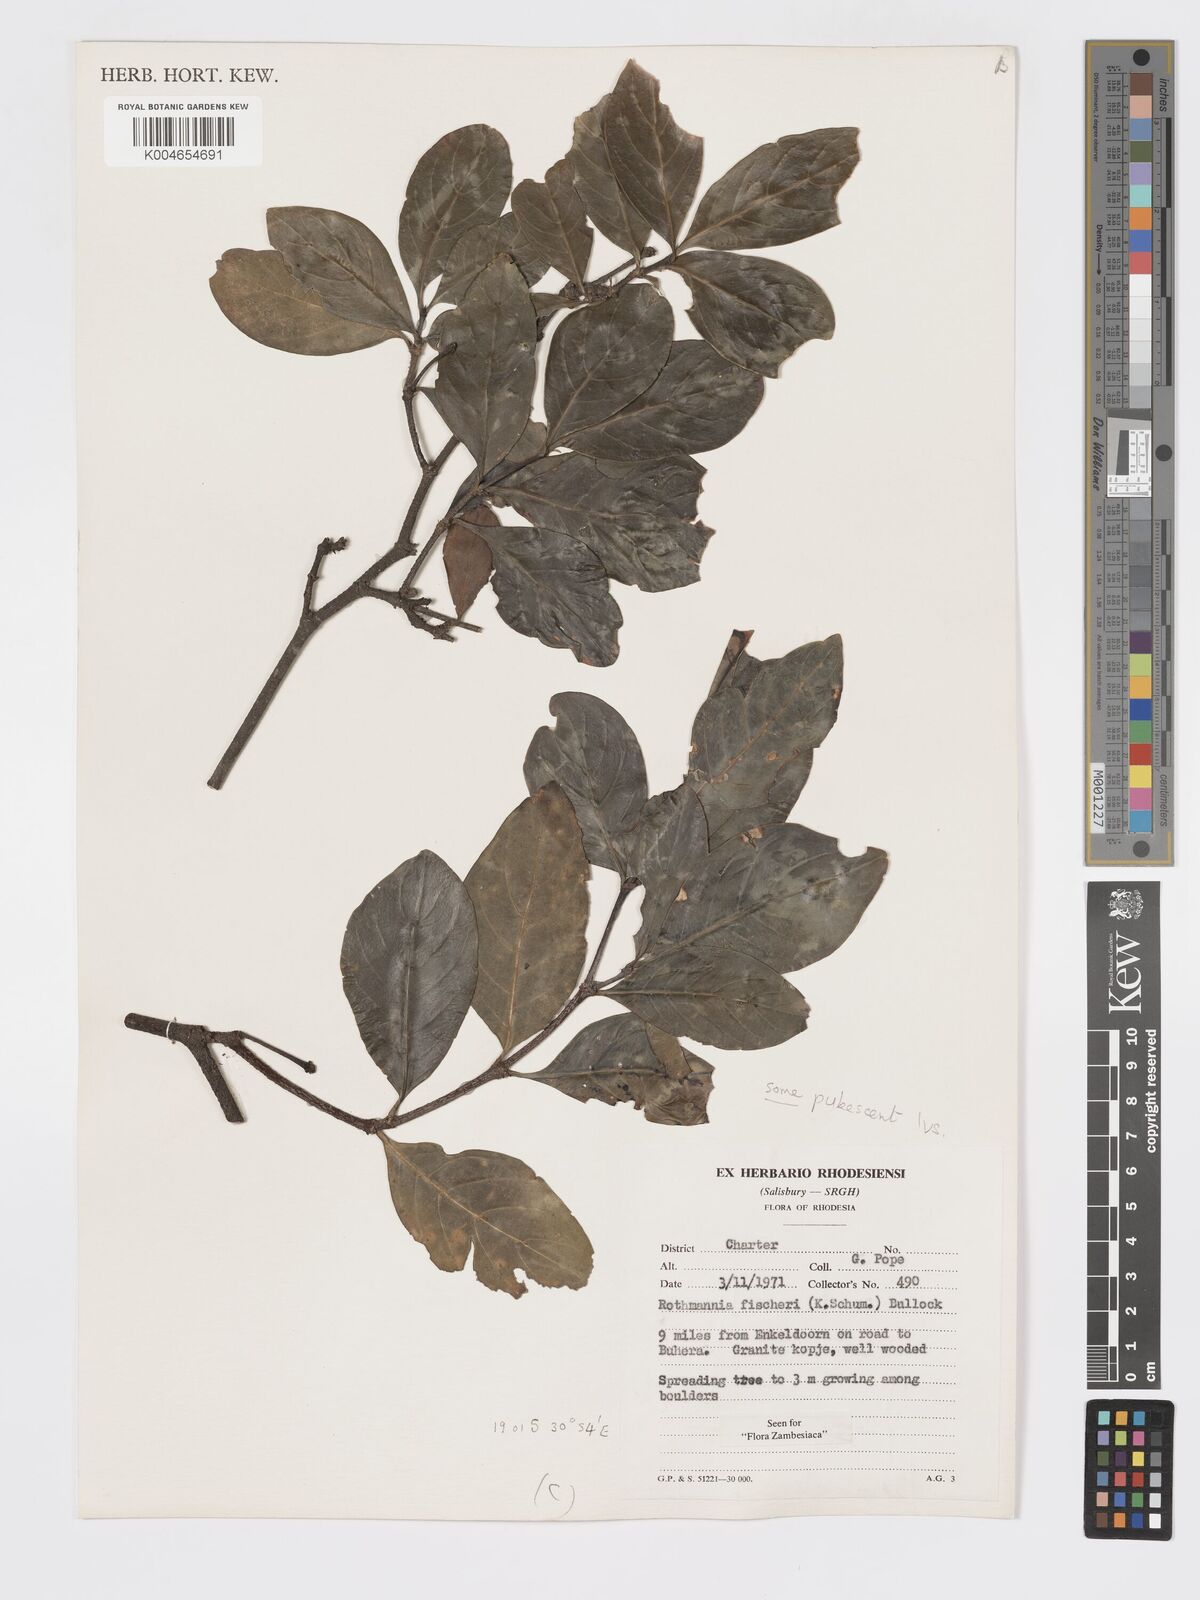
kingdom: Plantae
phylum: Tracheophyta
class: Magnoliopsida
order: Gentianales
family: Rubiaceae
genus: Rothmannia
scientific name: Rothmannia fischeri
